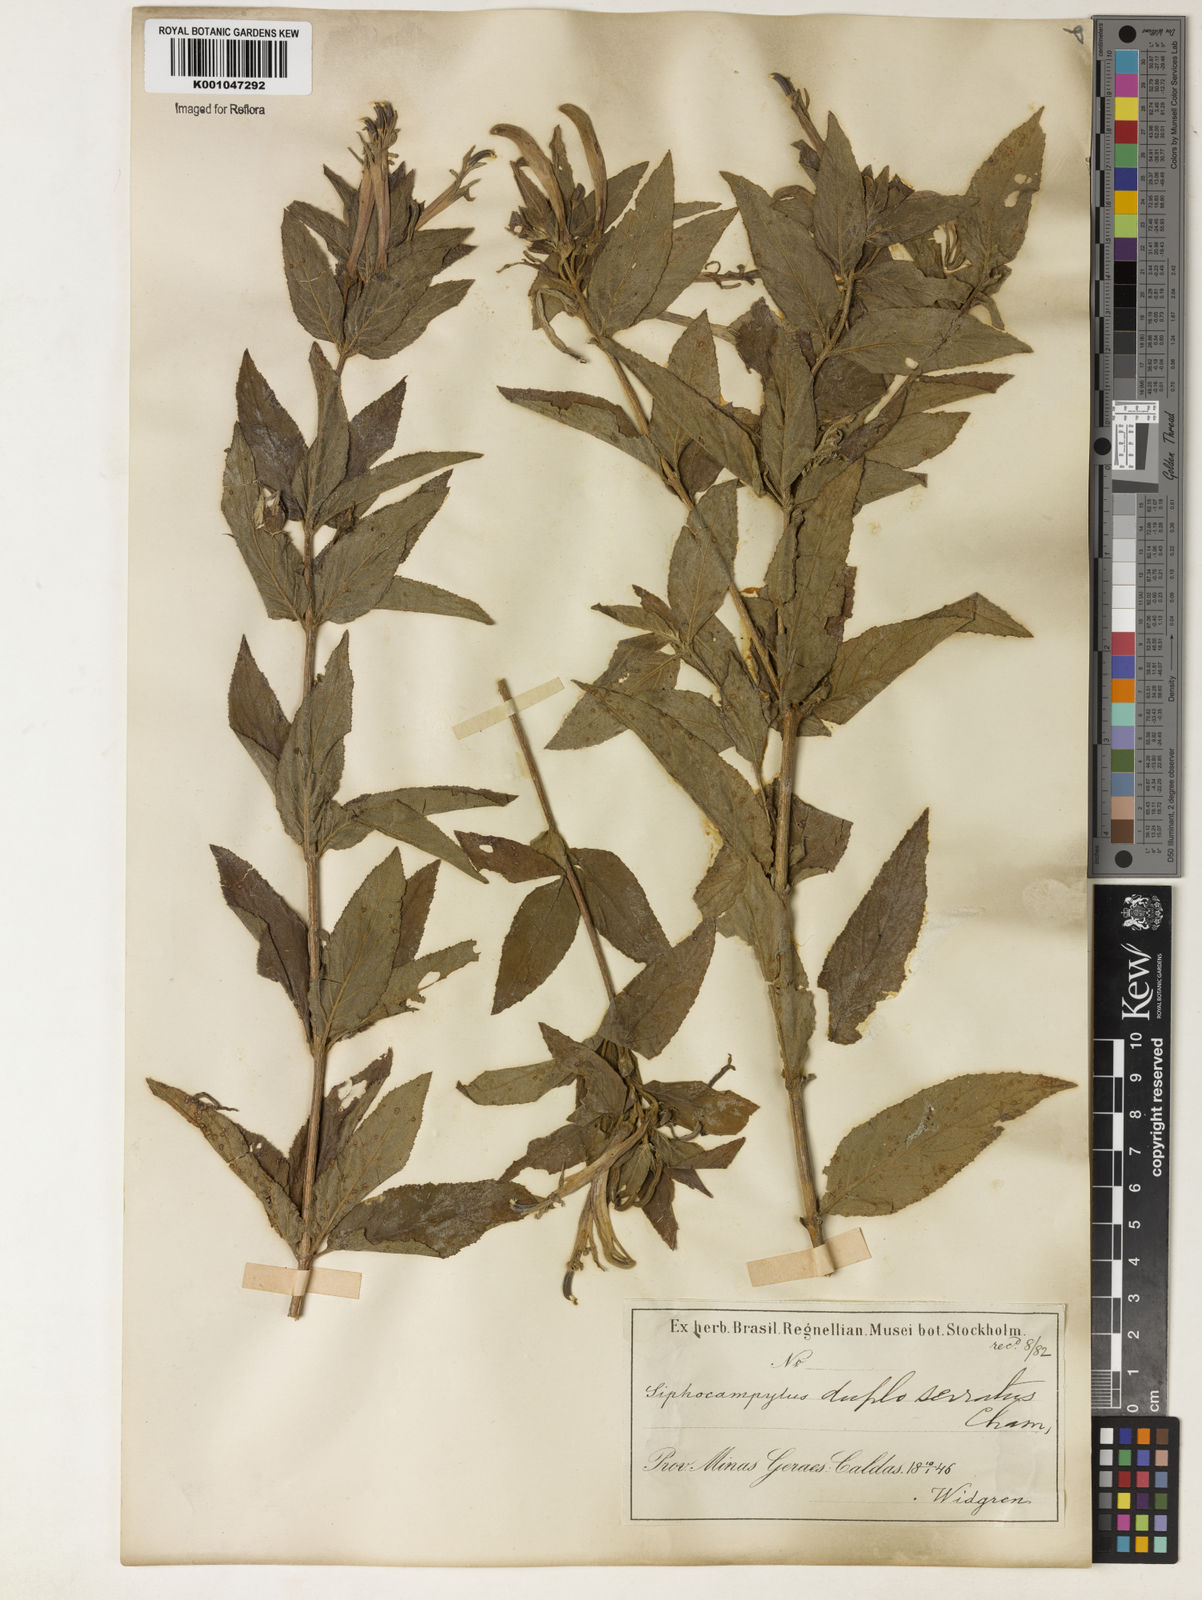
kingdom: Plantae
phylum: Tracheophyta
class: Magnoliopsida
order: Asterales
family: Campanulaceae
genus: Siphocampylus
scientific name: Siphocampylus duploserratus
